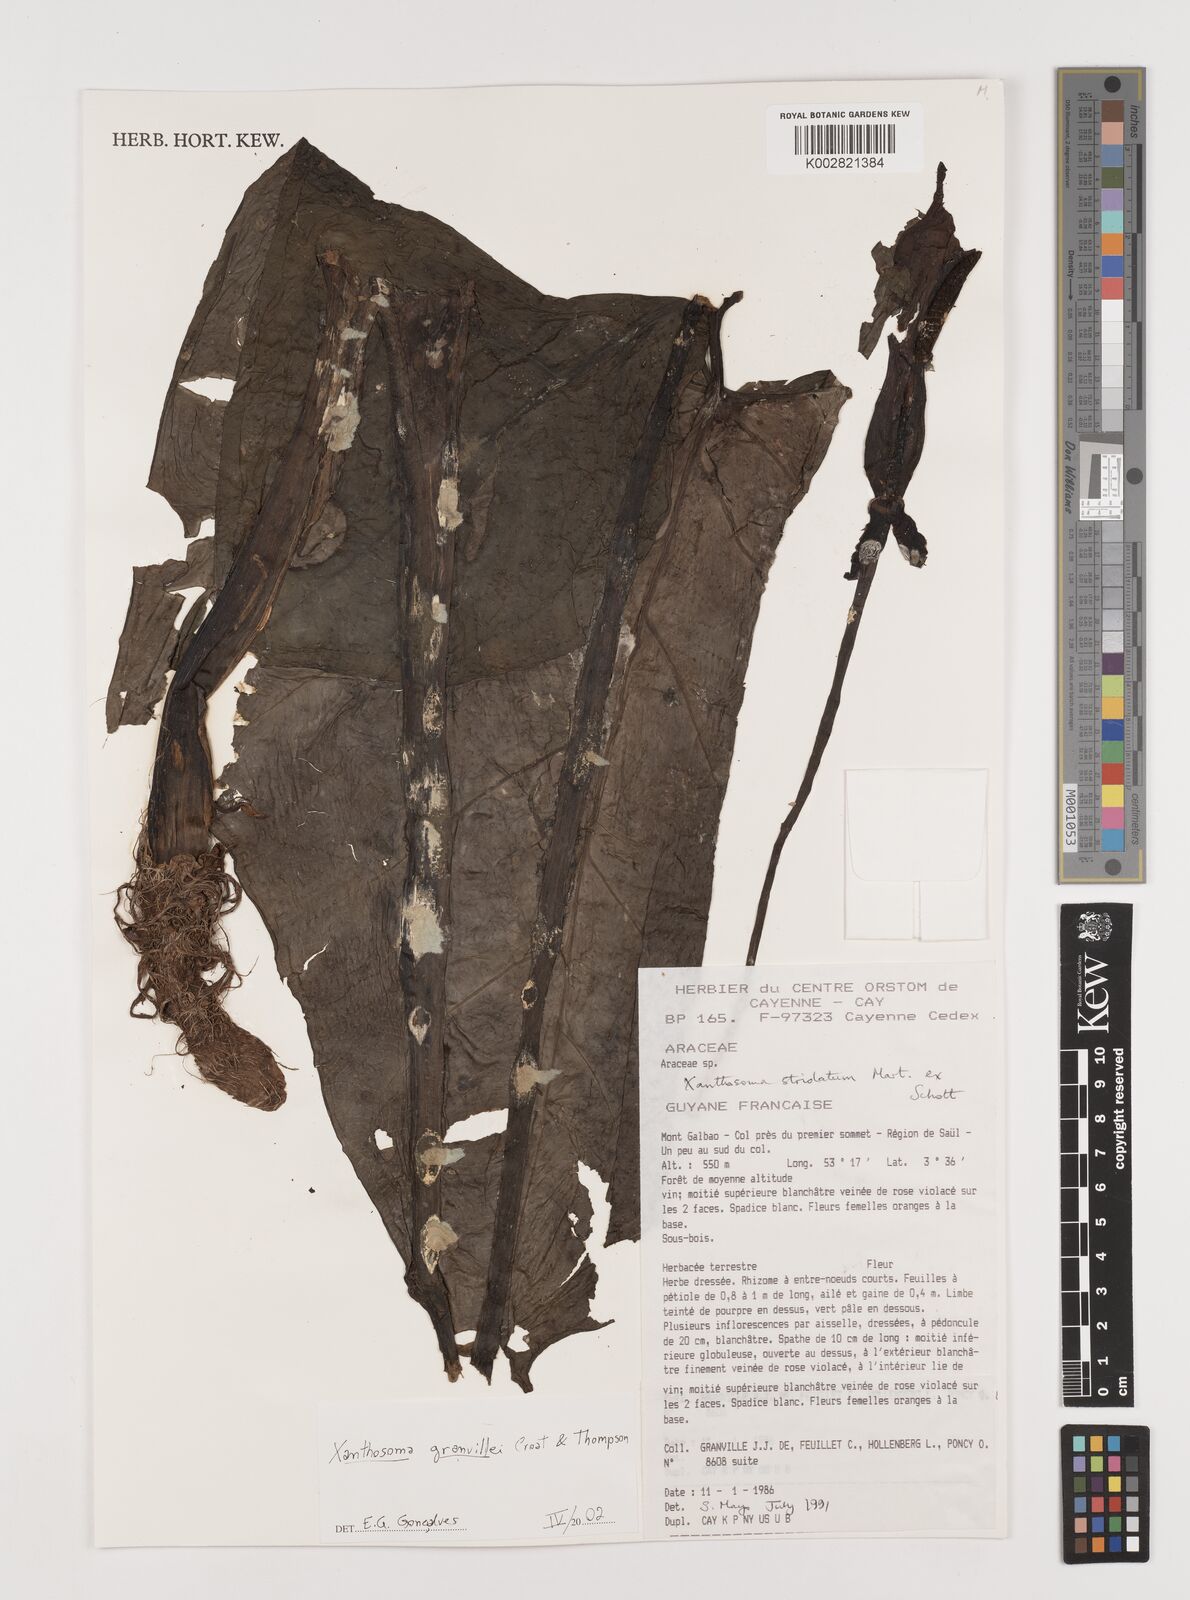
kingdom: Plantae
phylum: Tracheophyta
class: Liliopsida
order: Alismatales
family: Araceae
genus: Xanthosoma
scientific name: Xanthosoma granvillei
